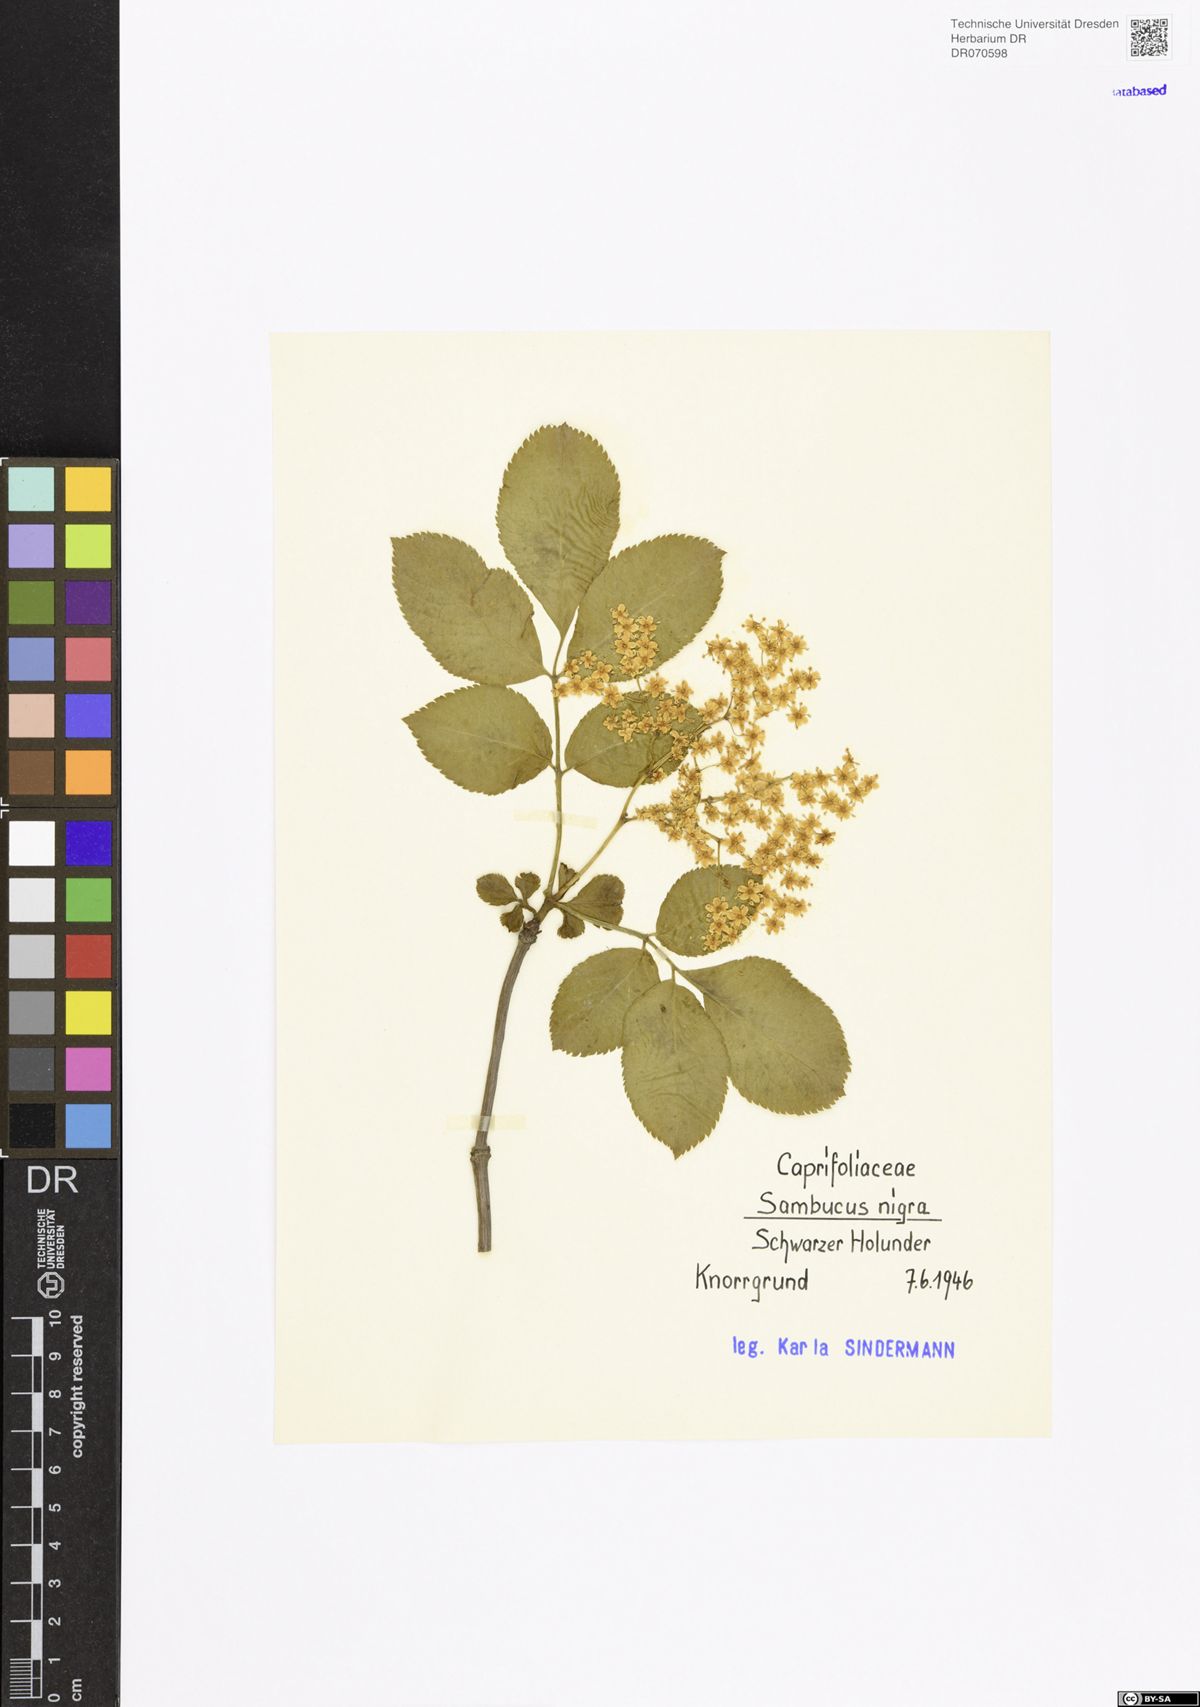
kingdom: Plantae
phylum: Tracheophyta
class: Magnoliopsida
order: Dipsacales
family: Viburnaceae
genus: Sambucus
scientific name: Sambucus nigra
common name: Elder
